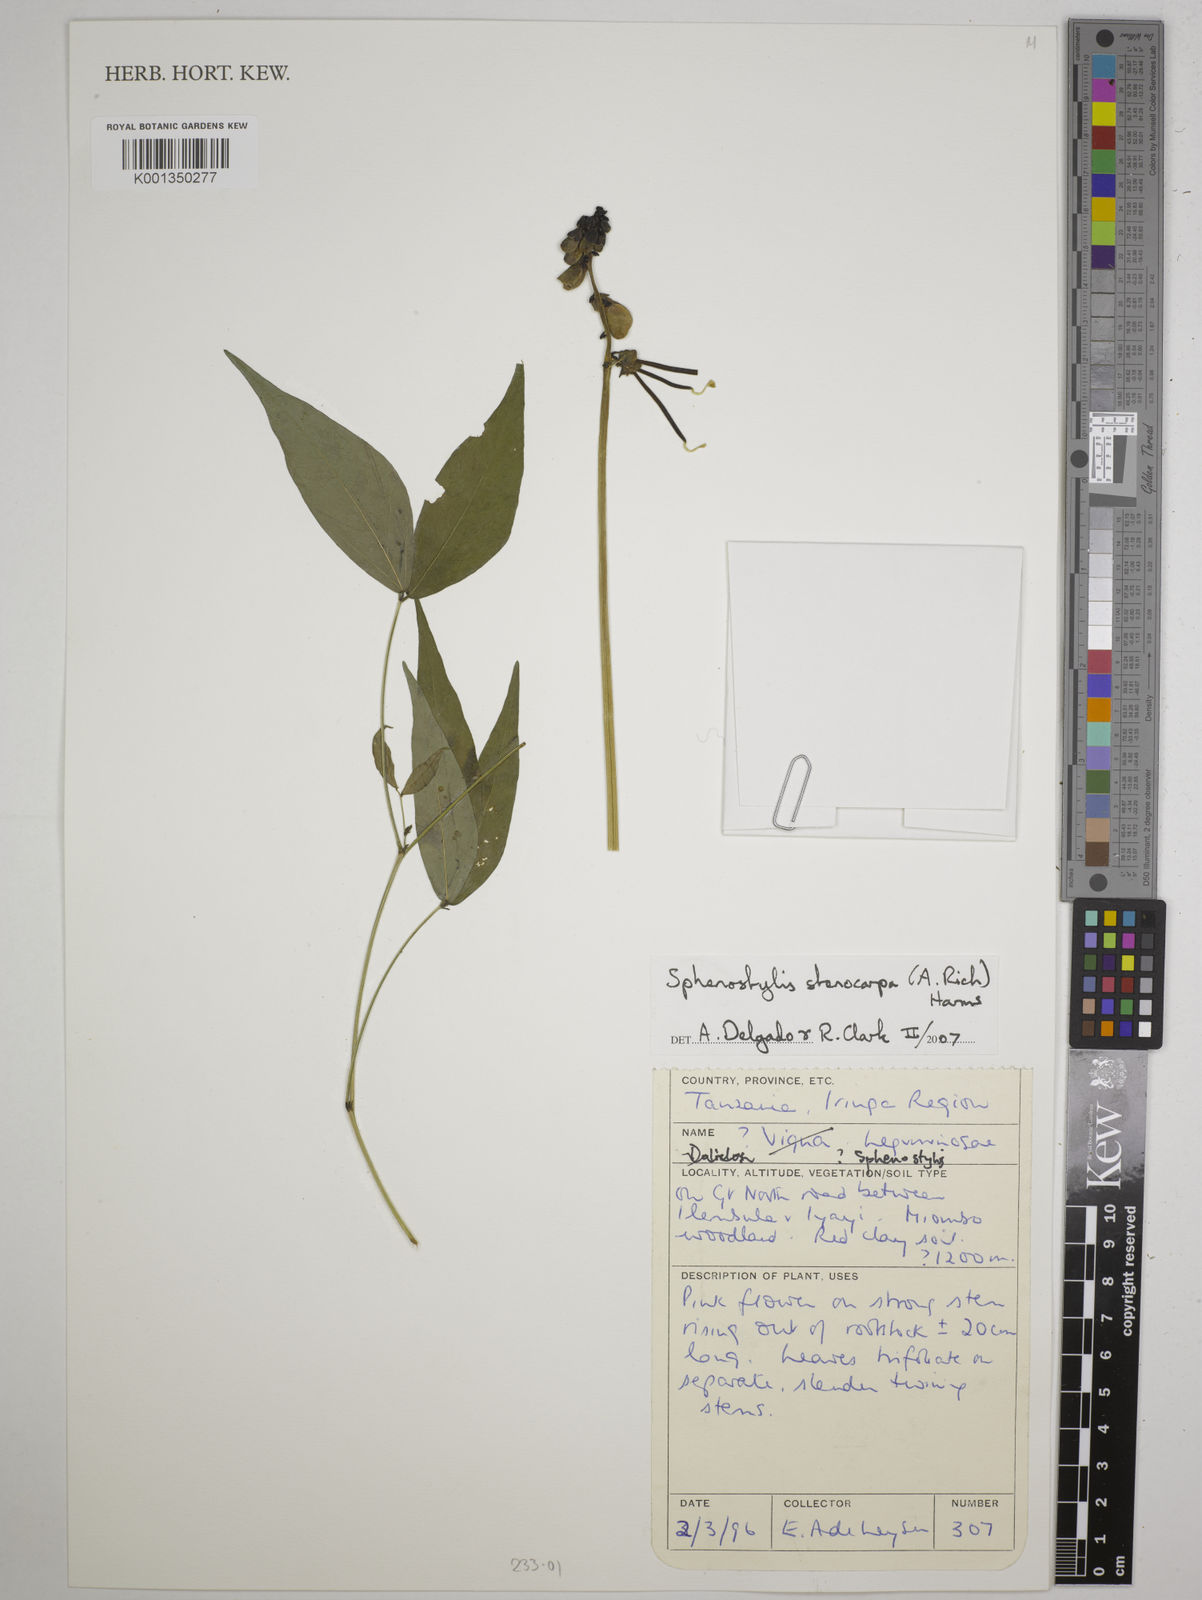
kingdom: Plantae
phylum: Tracheophyta
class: Magnoliopsida
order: Fabales
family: Fabaceae
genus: Sphenostylis
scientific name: Sphenostylis stenocarpa
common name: Yam-pea
